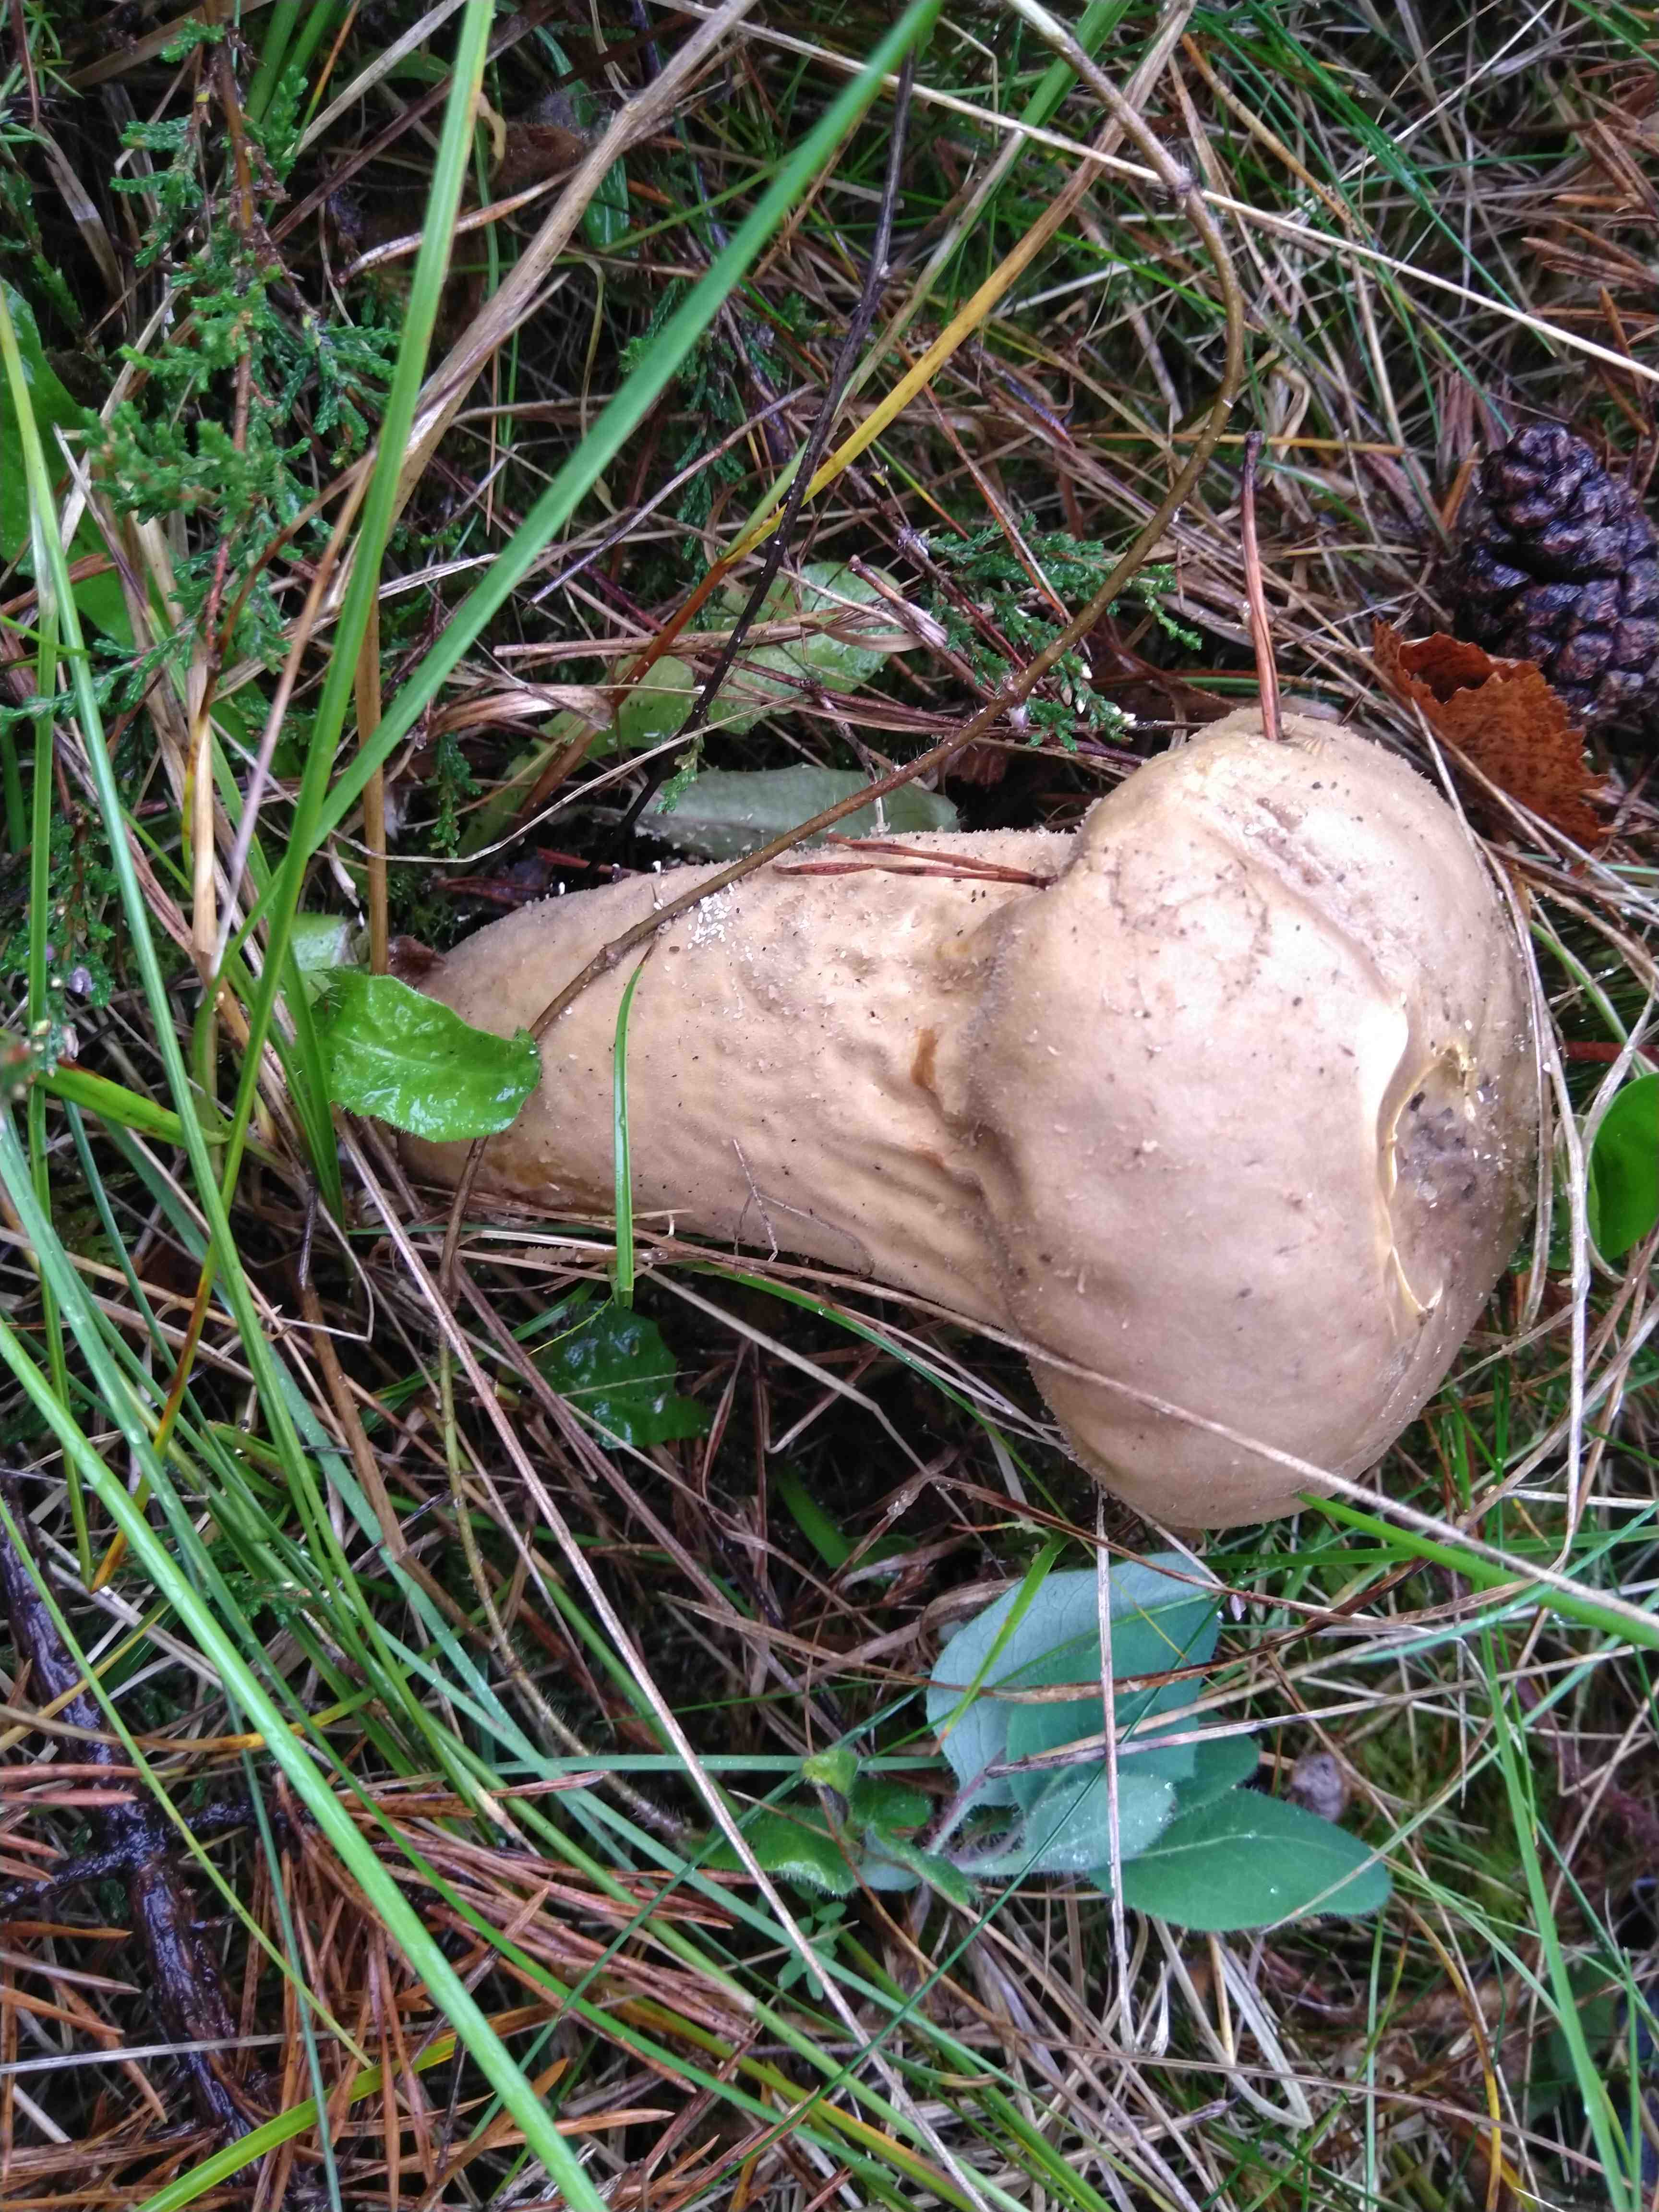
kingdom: Fungi
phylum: Basidiomycota
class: Agaricomycetes
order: Agaricales
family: Lycoperdaceae
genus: Lycoperdon
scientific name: Lycoperdon excipuliforme
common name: højstokket støvbold
